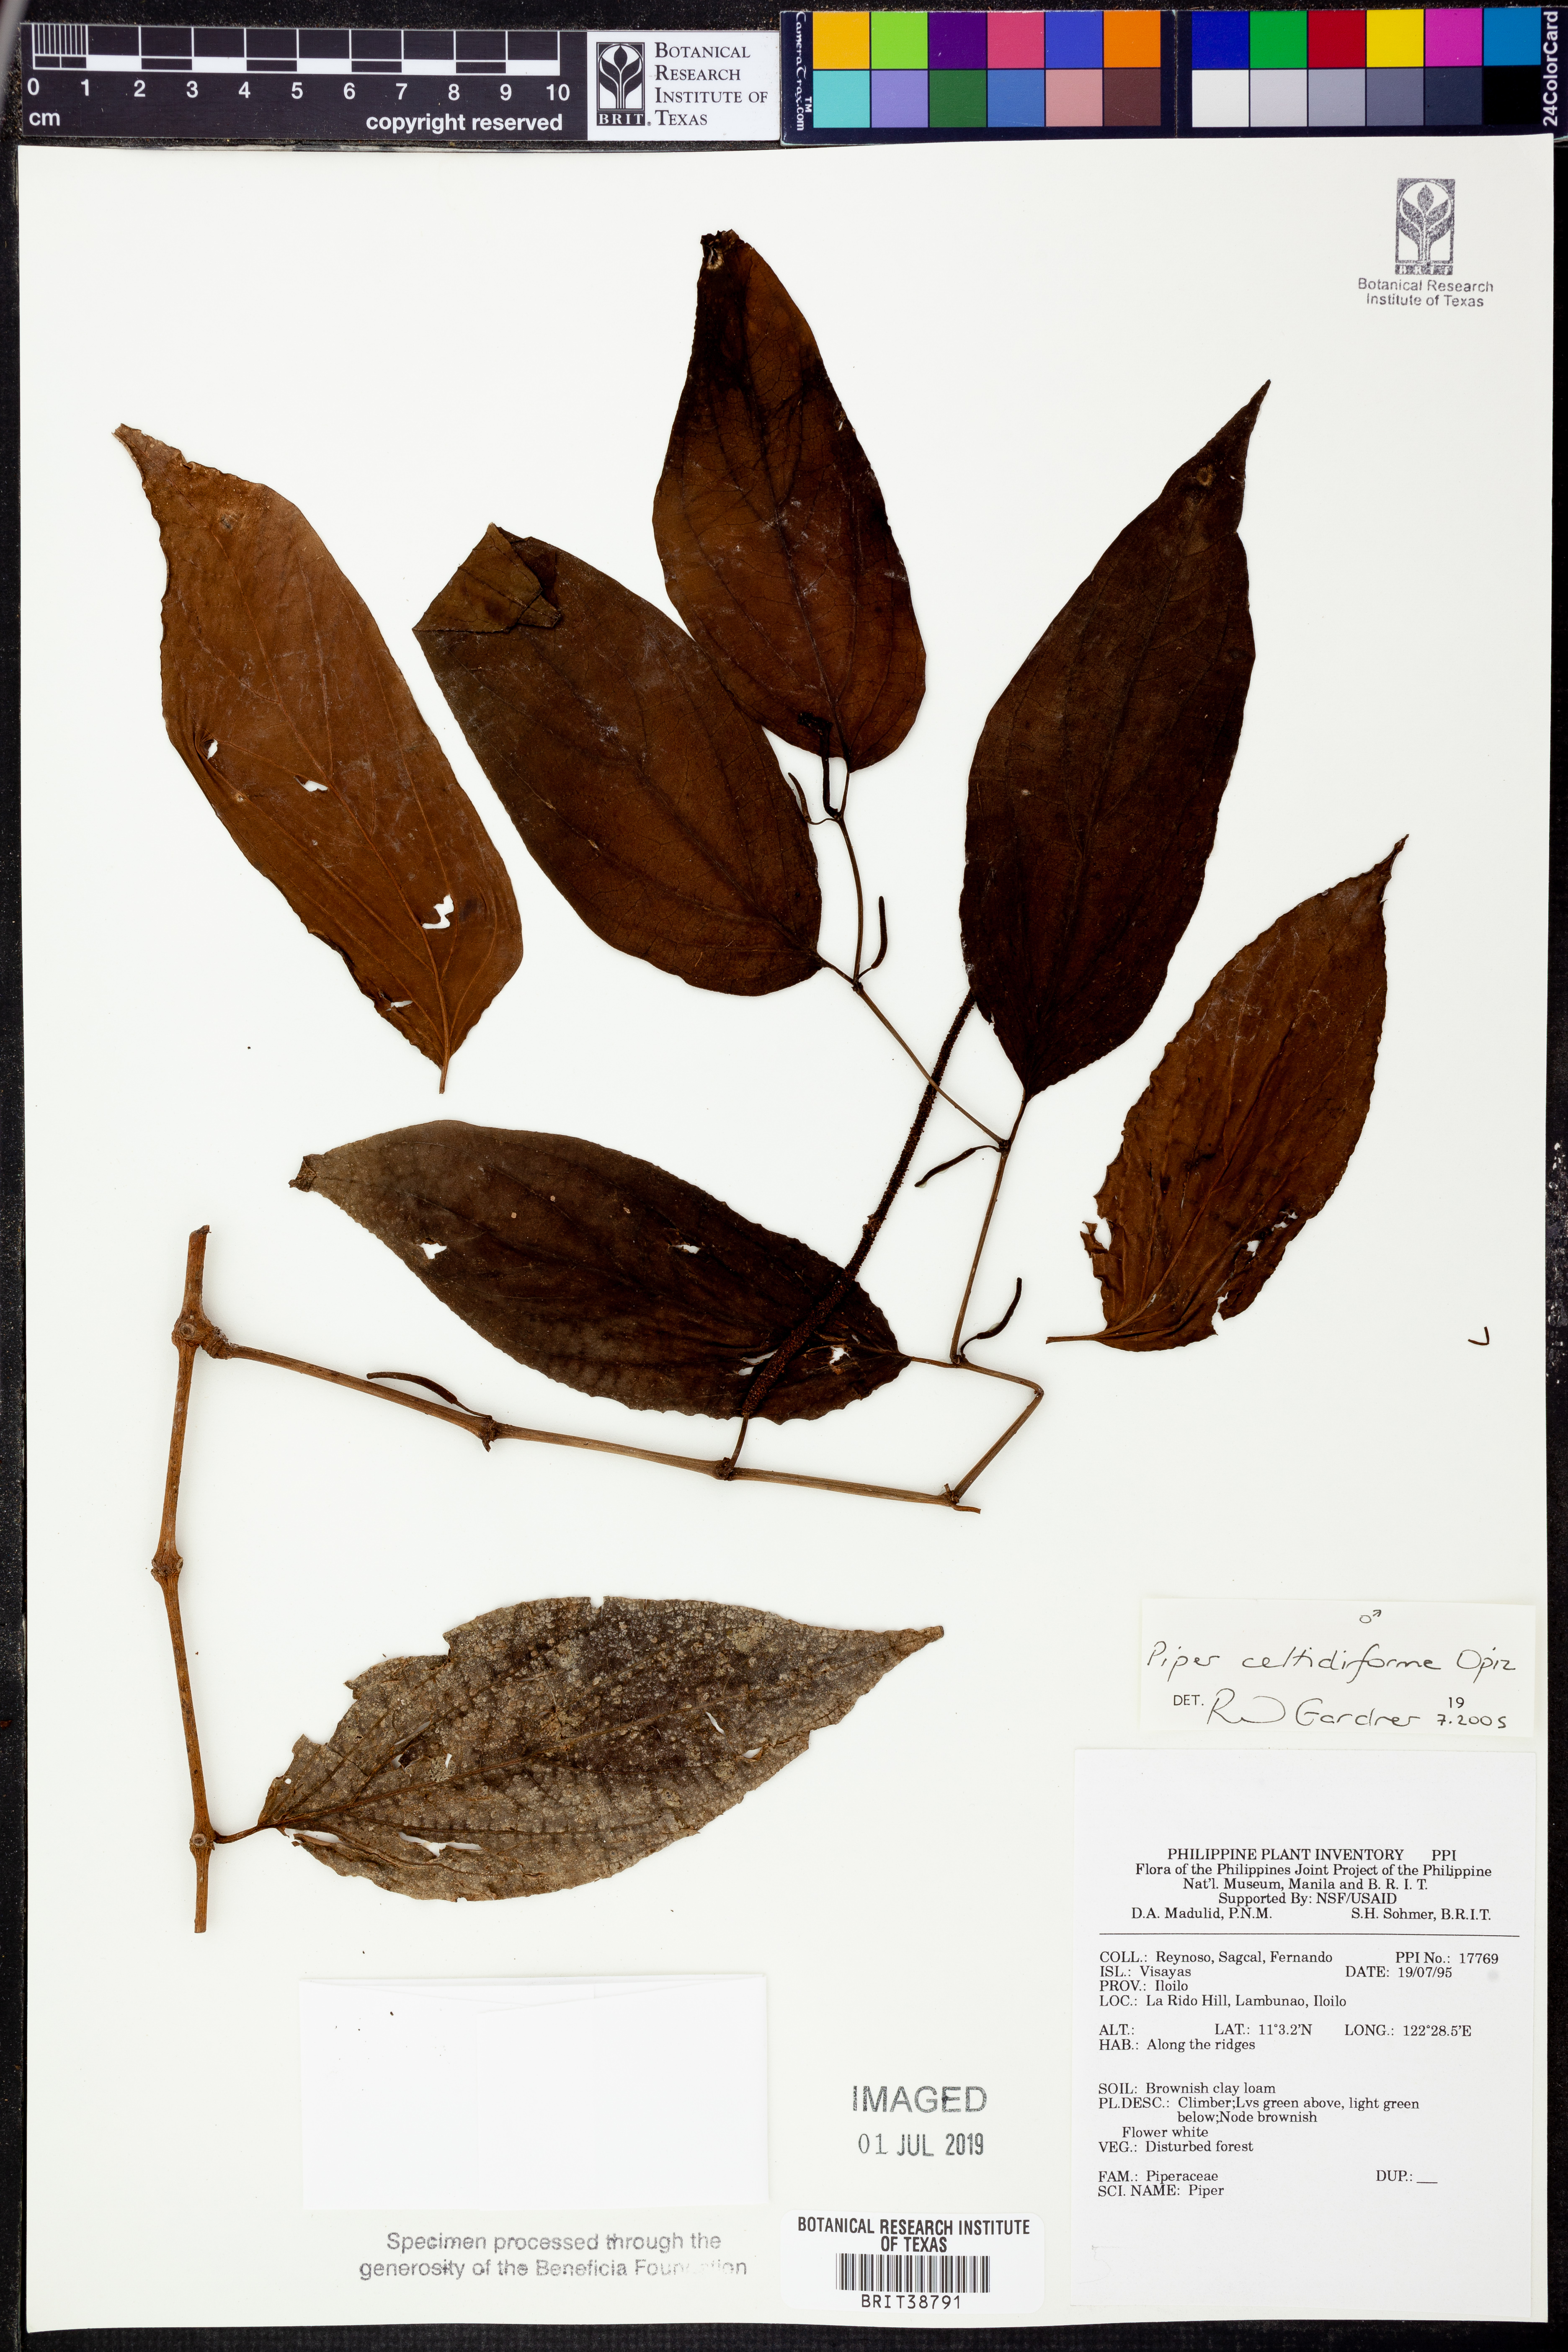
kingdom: Plantae
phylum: Tracheophyta
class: Magnoliopsida
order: Piperales
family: Piperaceae
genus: Piper
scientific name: Piper celtidiforme
